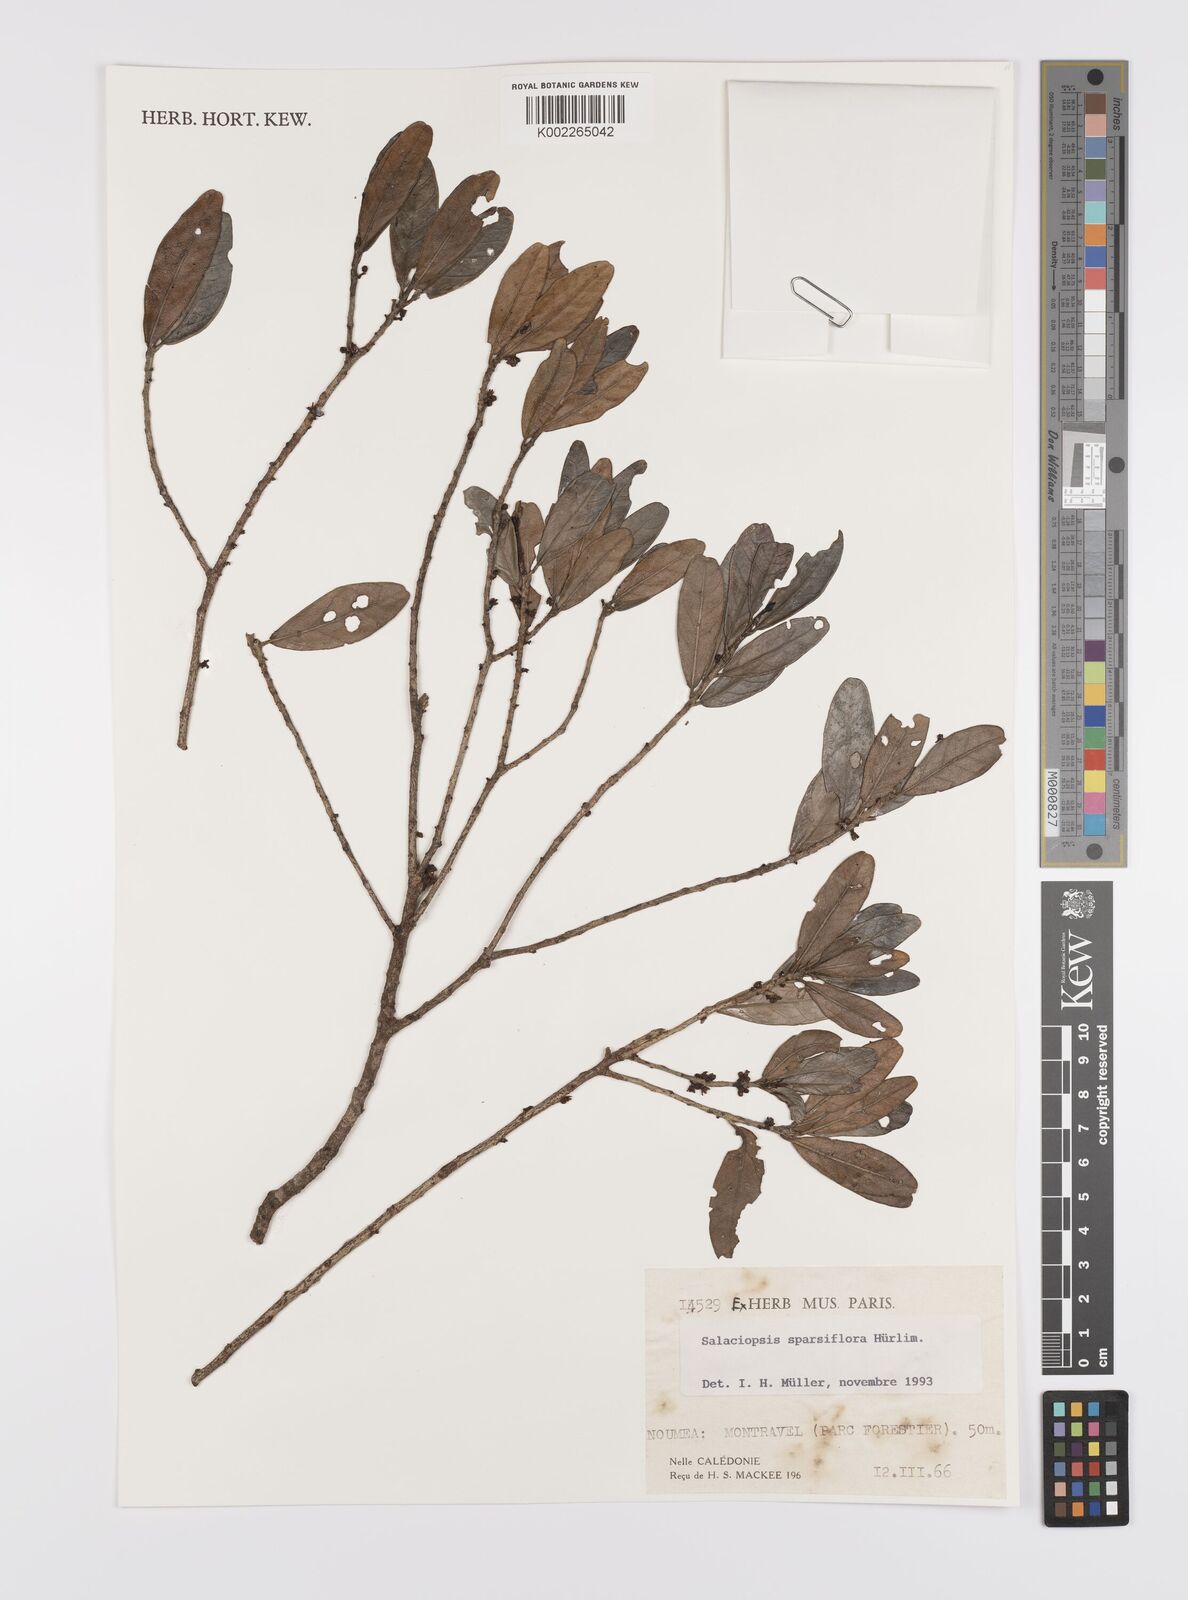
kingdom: Plantae
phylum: Tracheophyta
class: Magnoliopsida
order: Celastrales
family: Celastraceae
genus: Salaciopsis
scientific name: Salaciopsis sparsiflora
